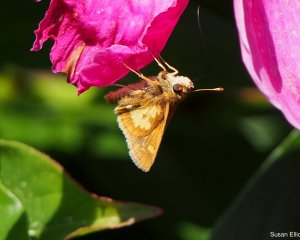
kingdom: Animalia
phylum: Arthropoda
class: Insecta
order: Lepidoptera
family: Hesperiidae
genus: Polites
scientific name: Polites coras
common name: Peck's Skipper
